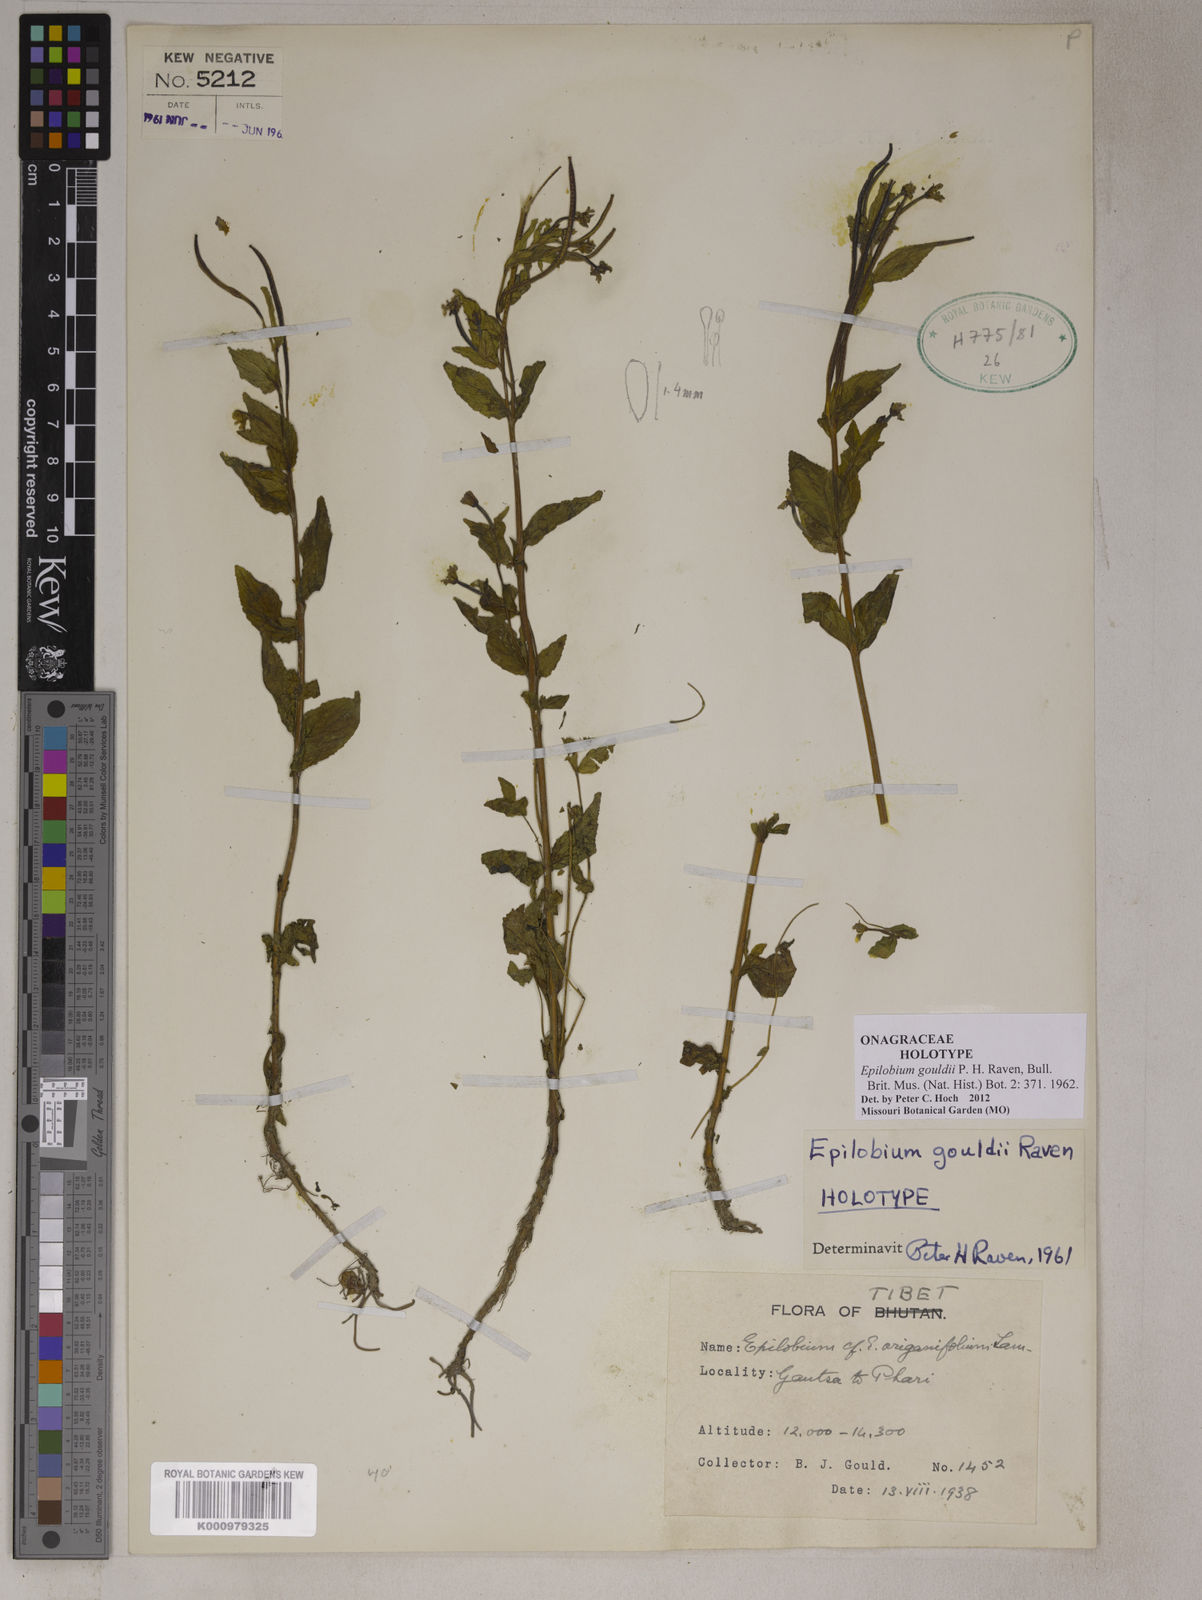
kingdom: Plantae
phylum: Tracheophyta
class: Magnoliopsida
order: Myrtales
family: Onagraceae
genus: Epilobium
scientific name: Epilobium gouldii
